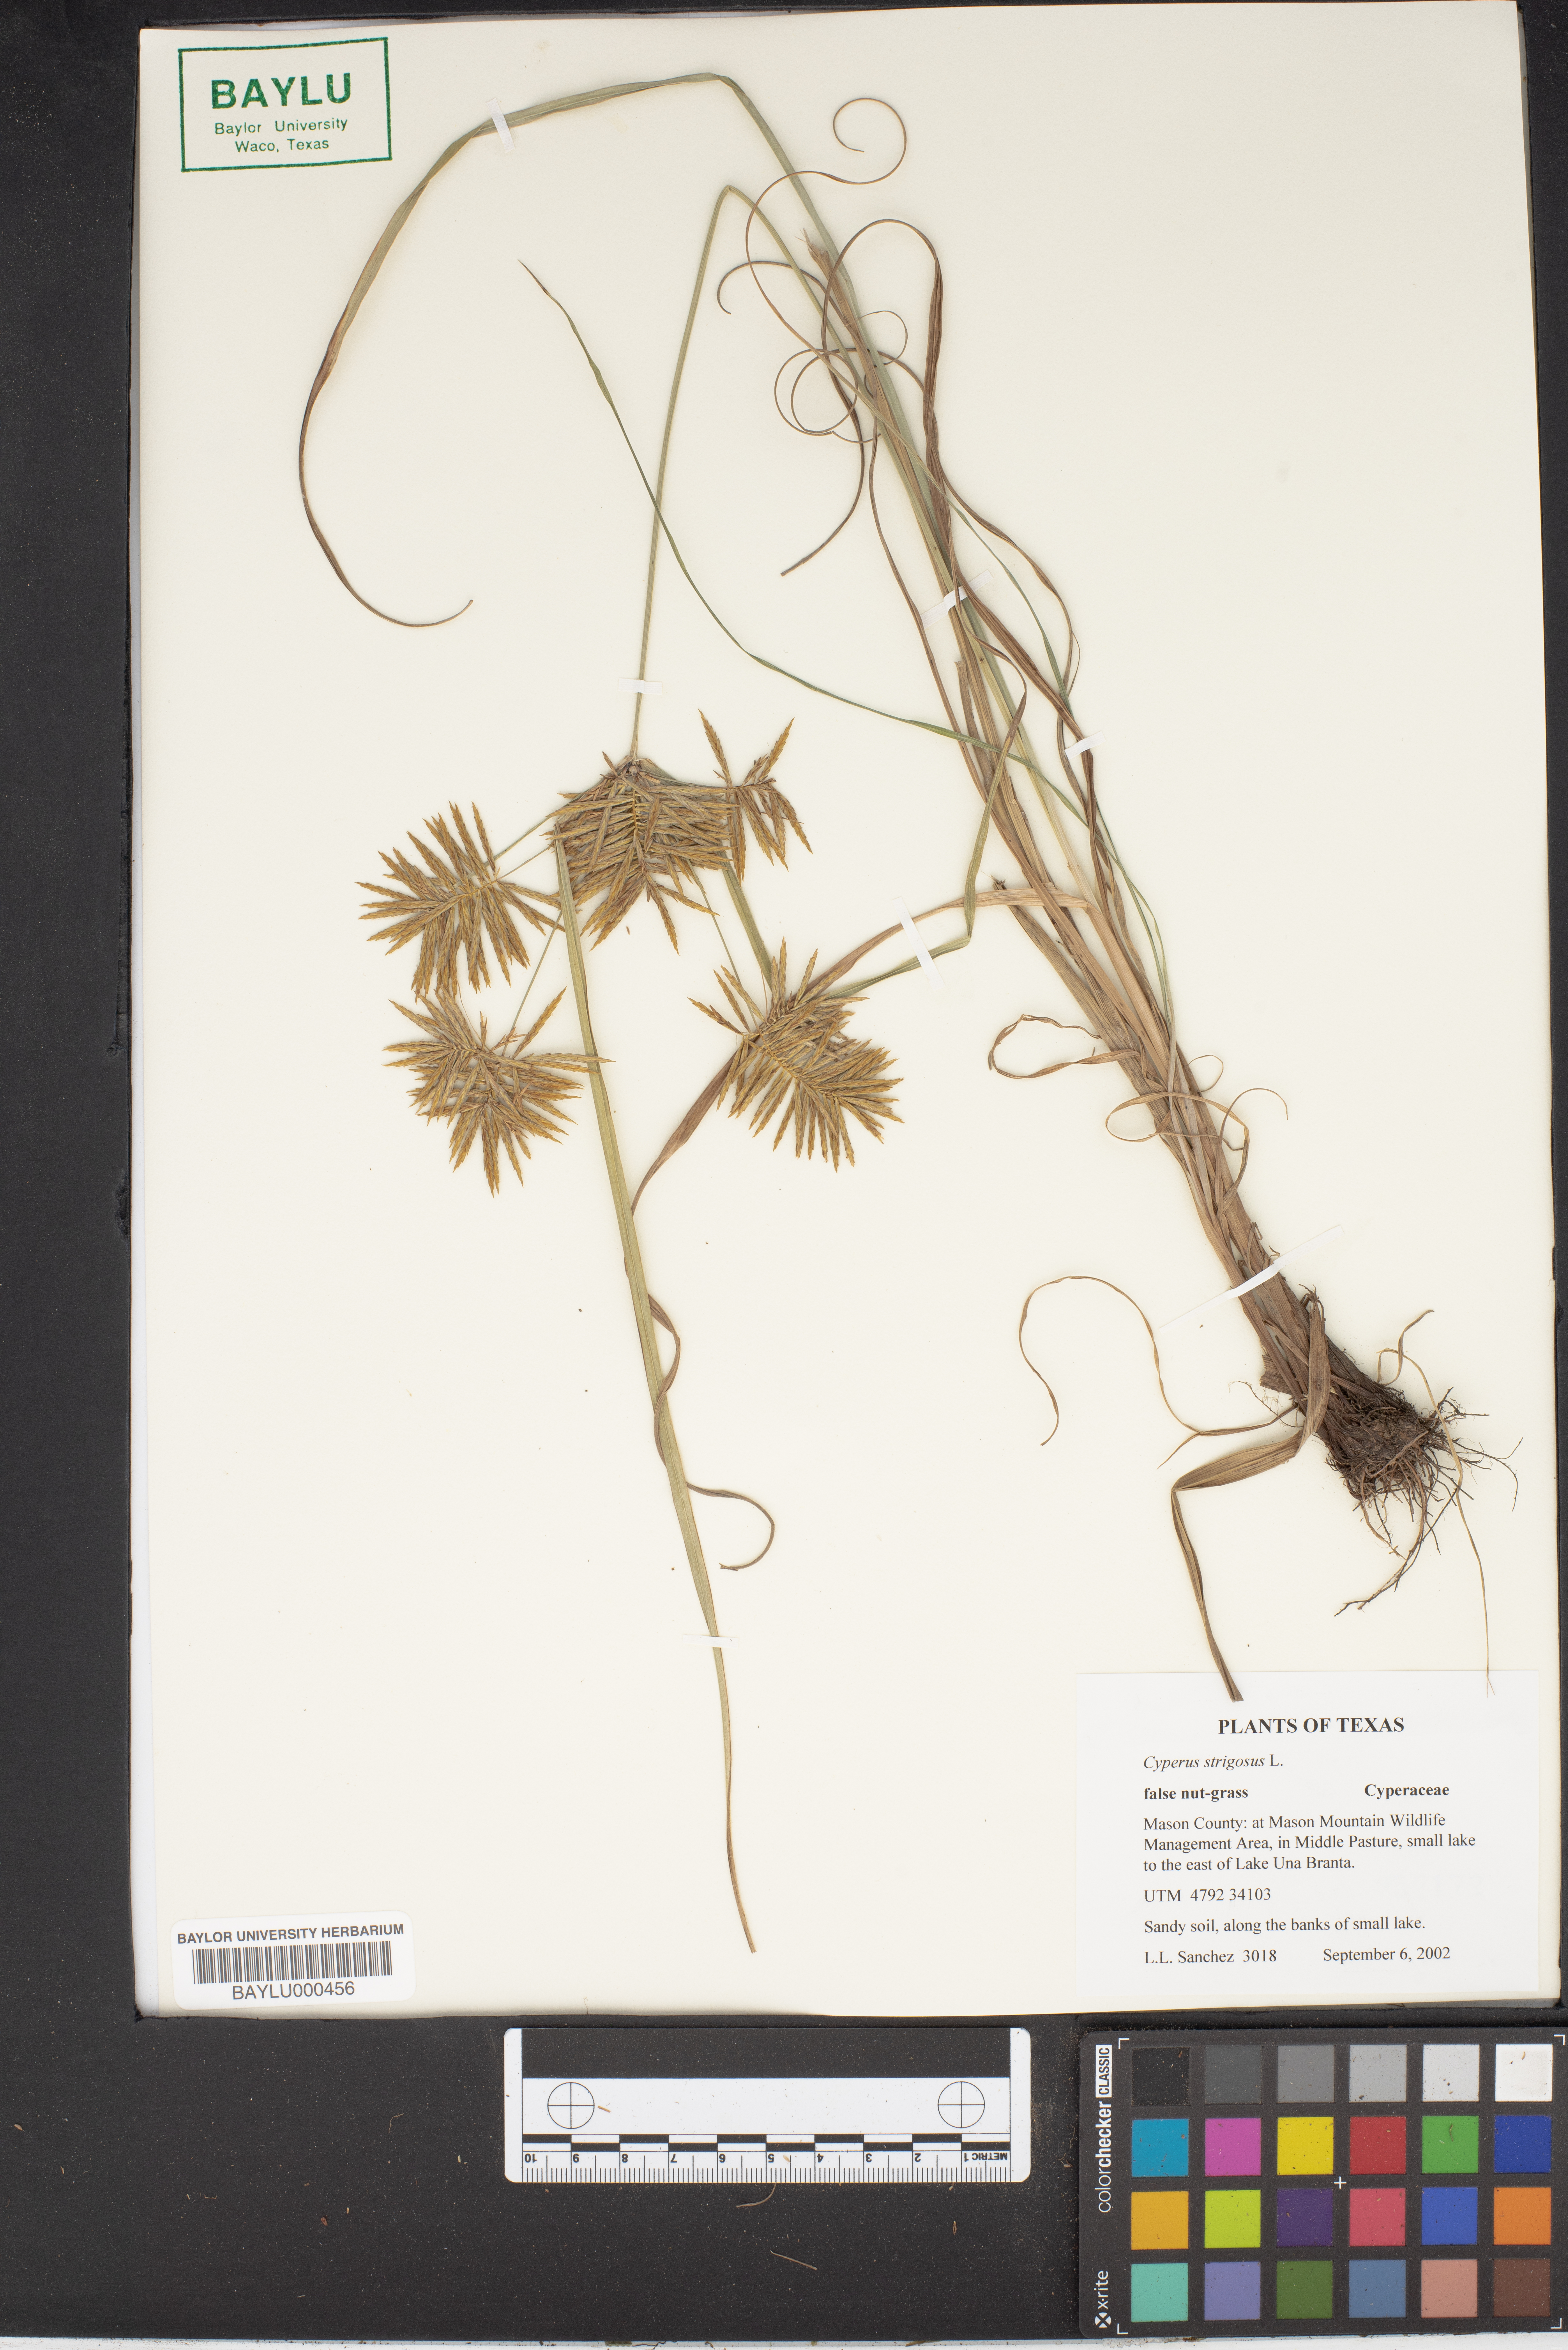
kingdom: Plantae
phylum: Tracheophyta
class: Liliopsida
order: Poales
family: Cyperaceae
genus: Cyperus
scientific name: Cyperus strigosus
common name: False nutsedge
